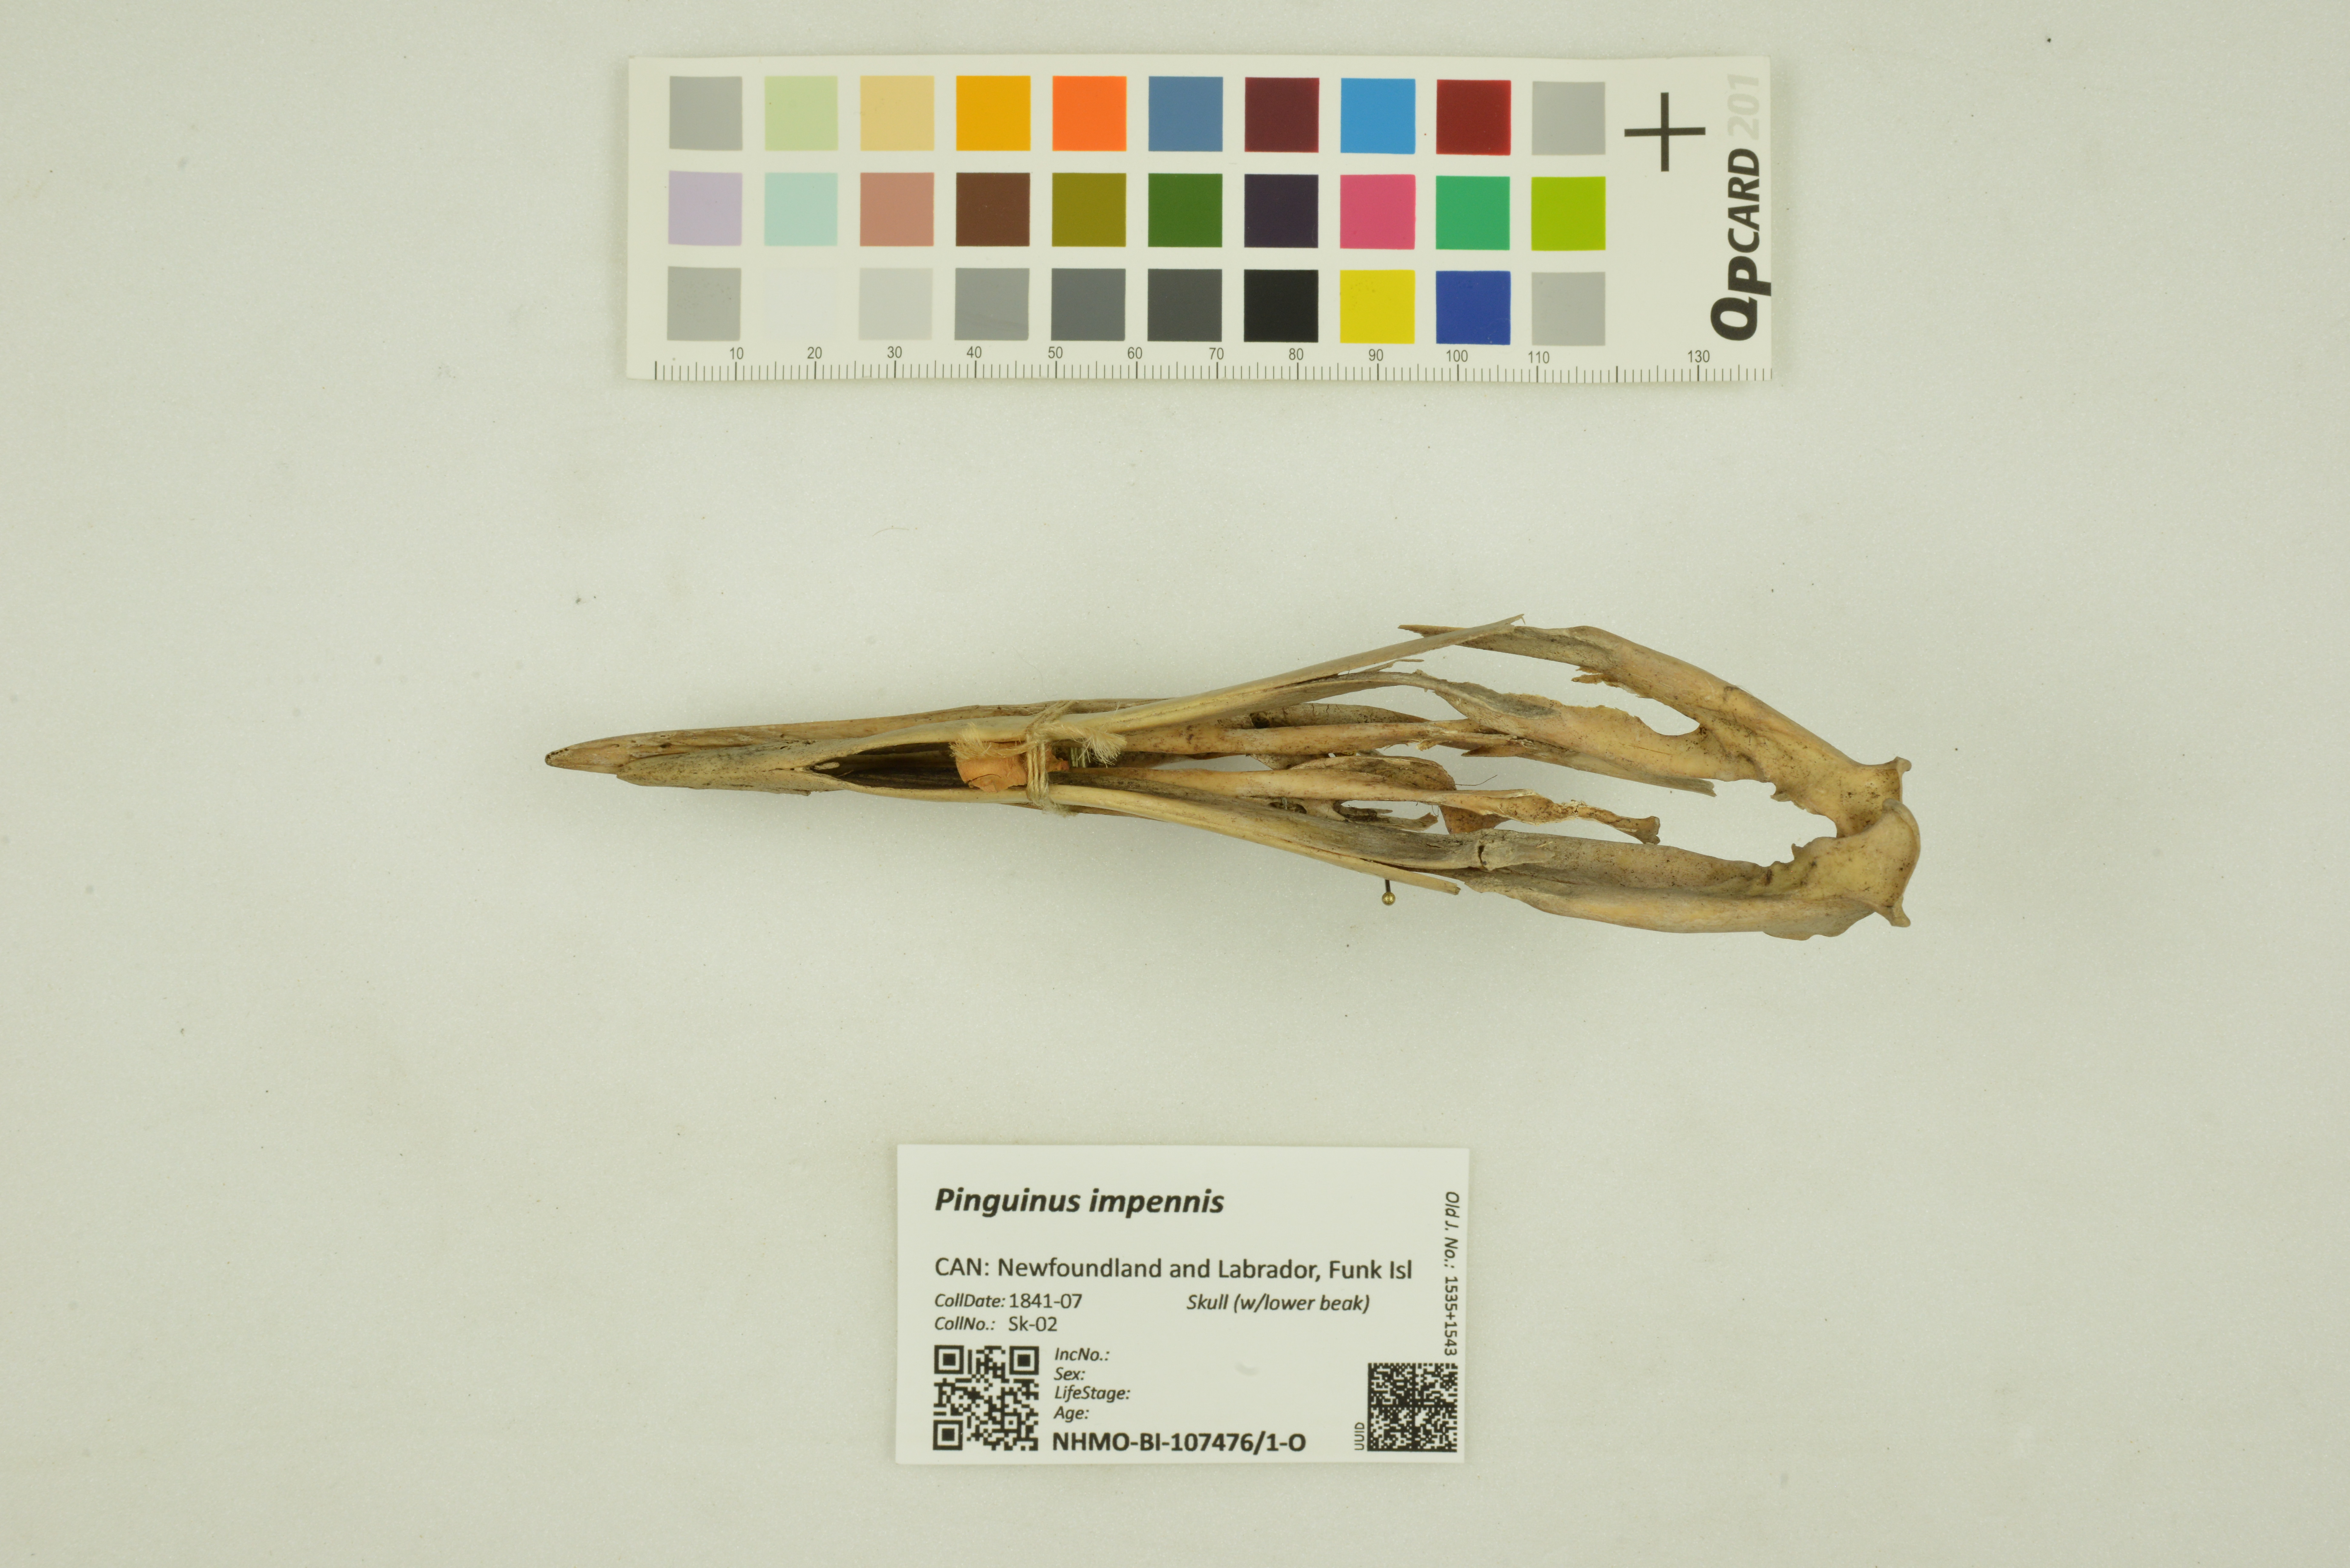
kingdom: Animalia
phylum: Chordata
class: Aves
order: Charadriiformes
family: Alcidae
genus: Pinguinus
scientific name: Pinguinus impennis
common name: Great auk
